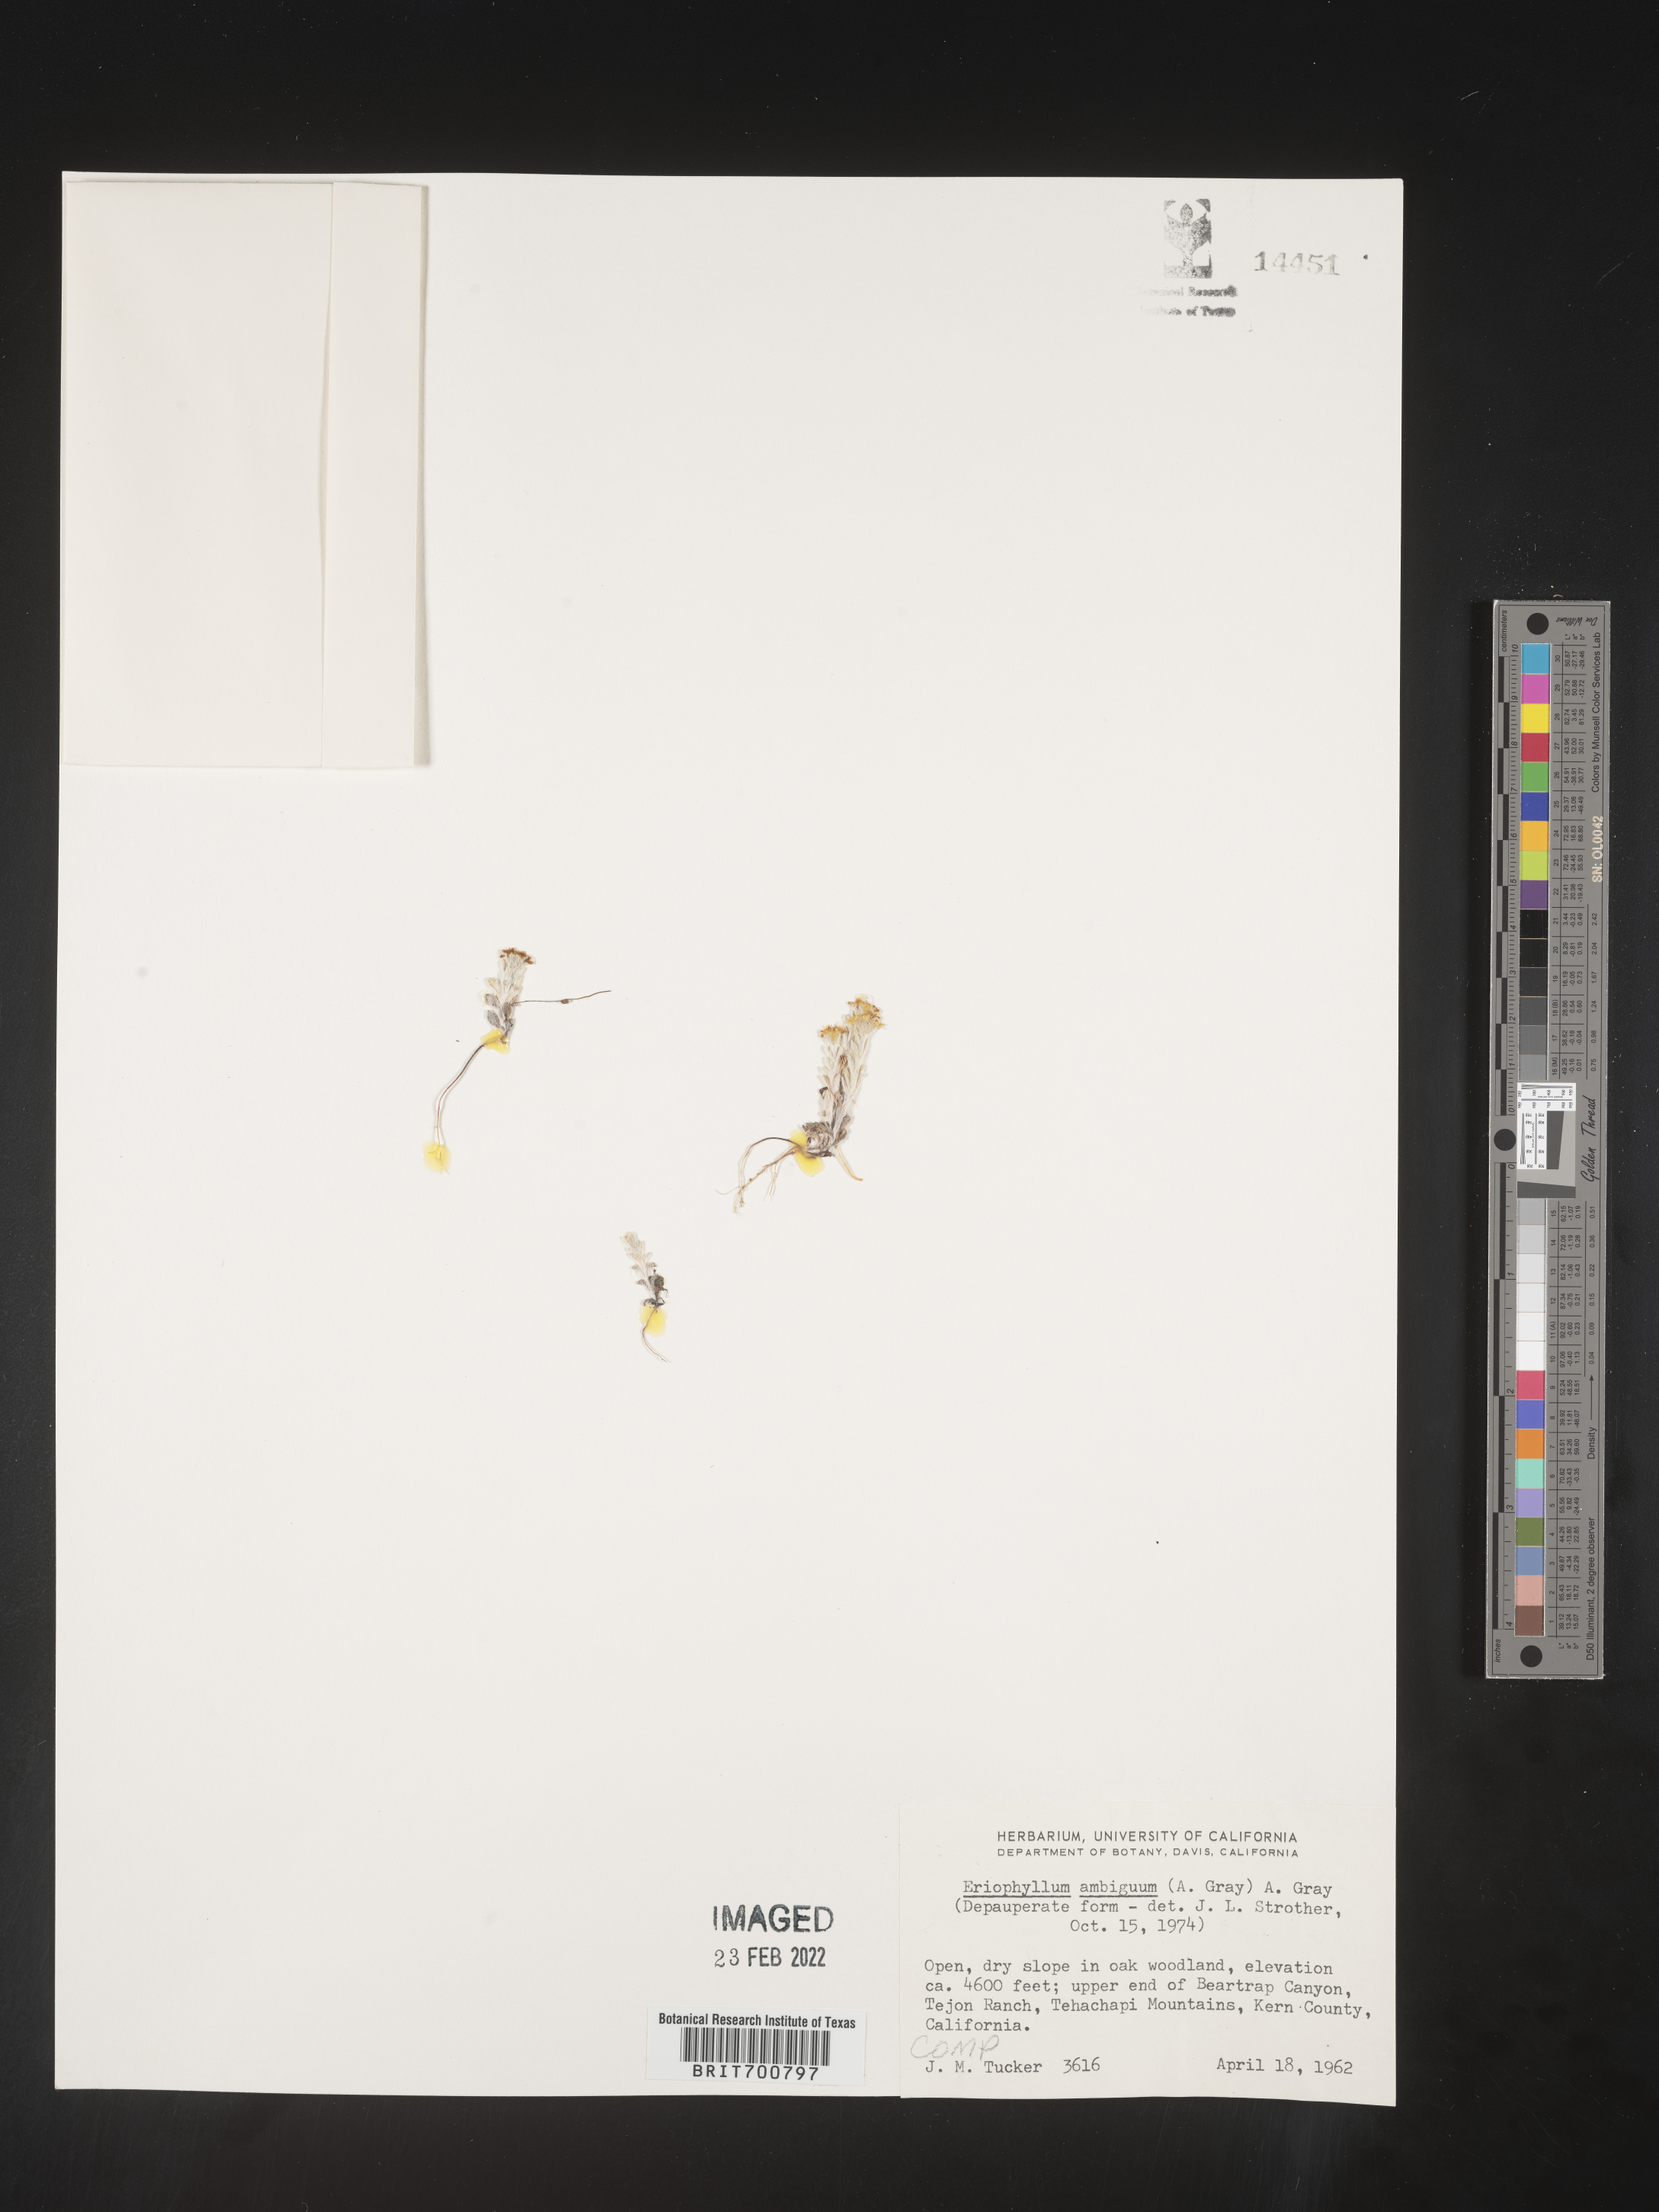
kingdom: Plantae
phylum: Tracheophyta
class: Magnoliopsida
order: Asterales
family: Asteraceae
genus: Eriophyllum
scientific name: Eriophyllum ambiguum
